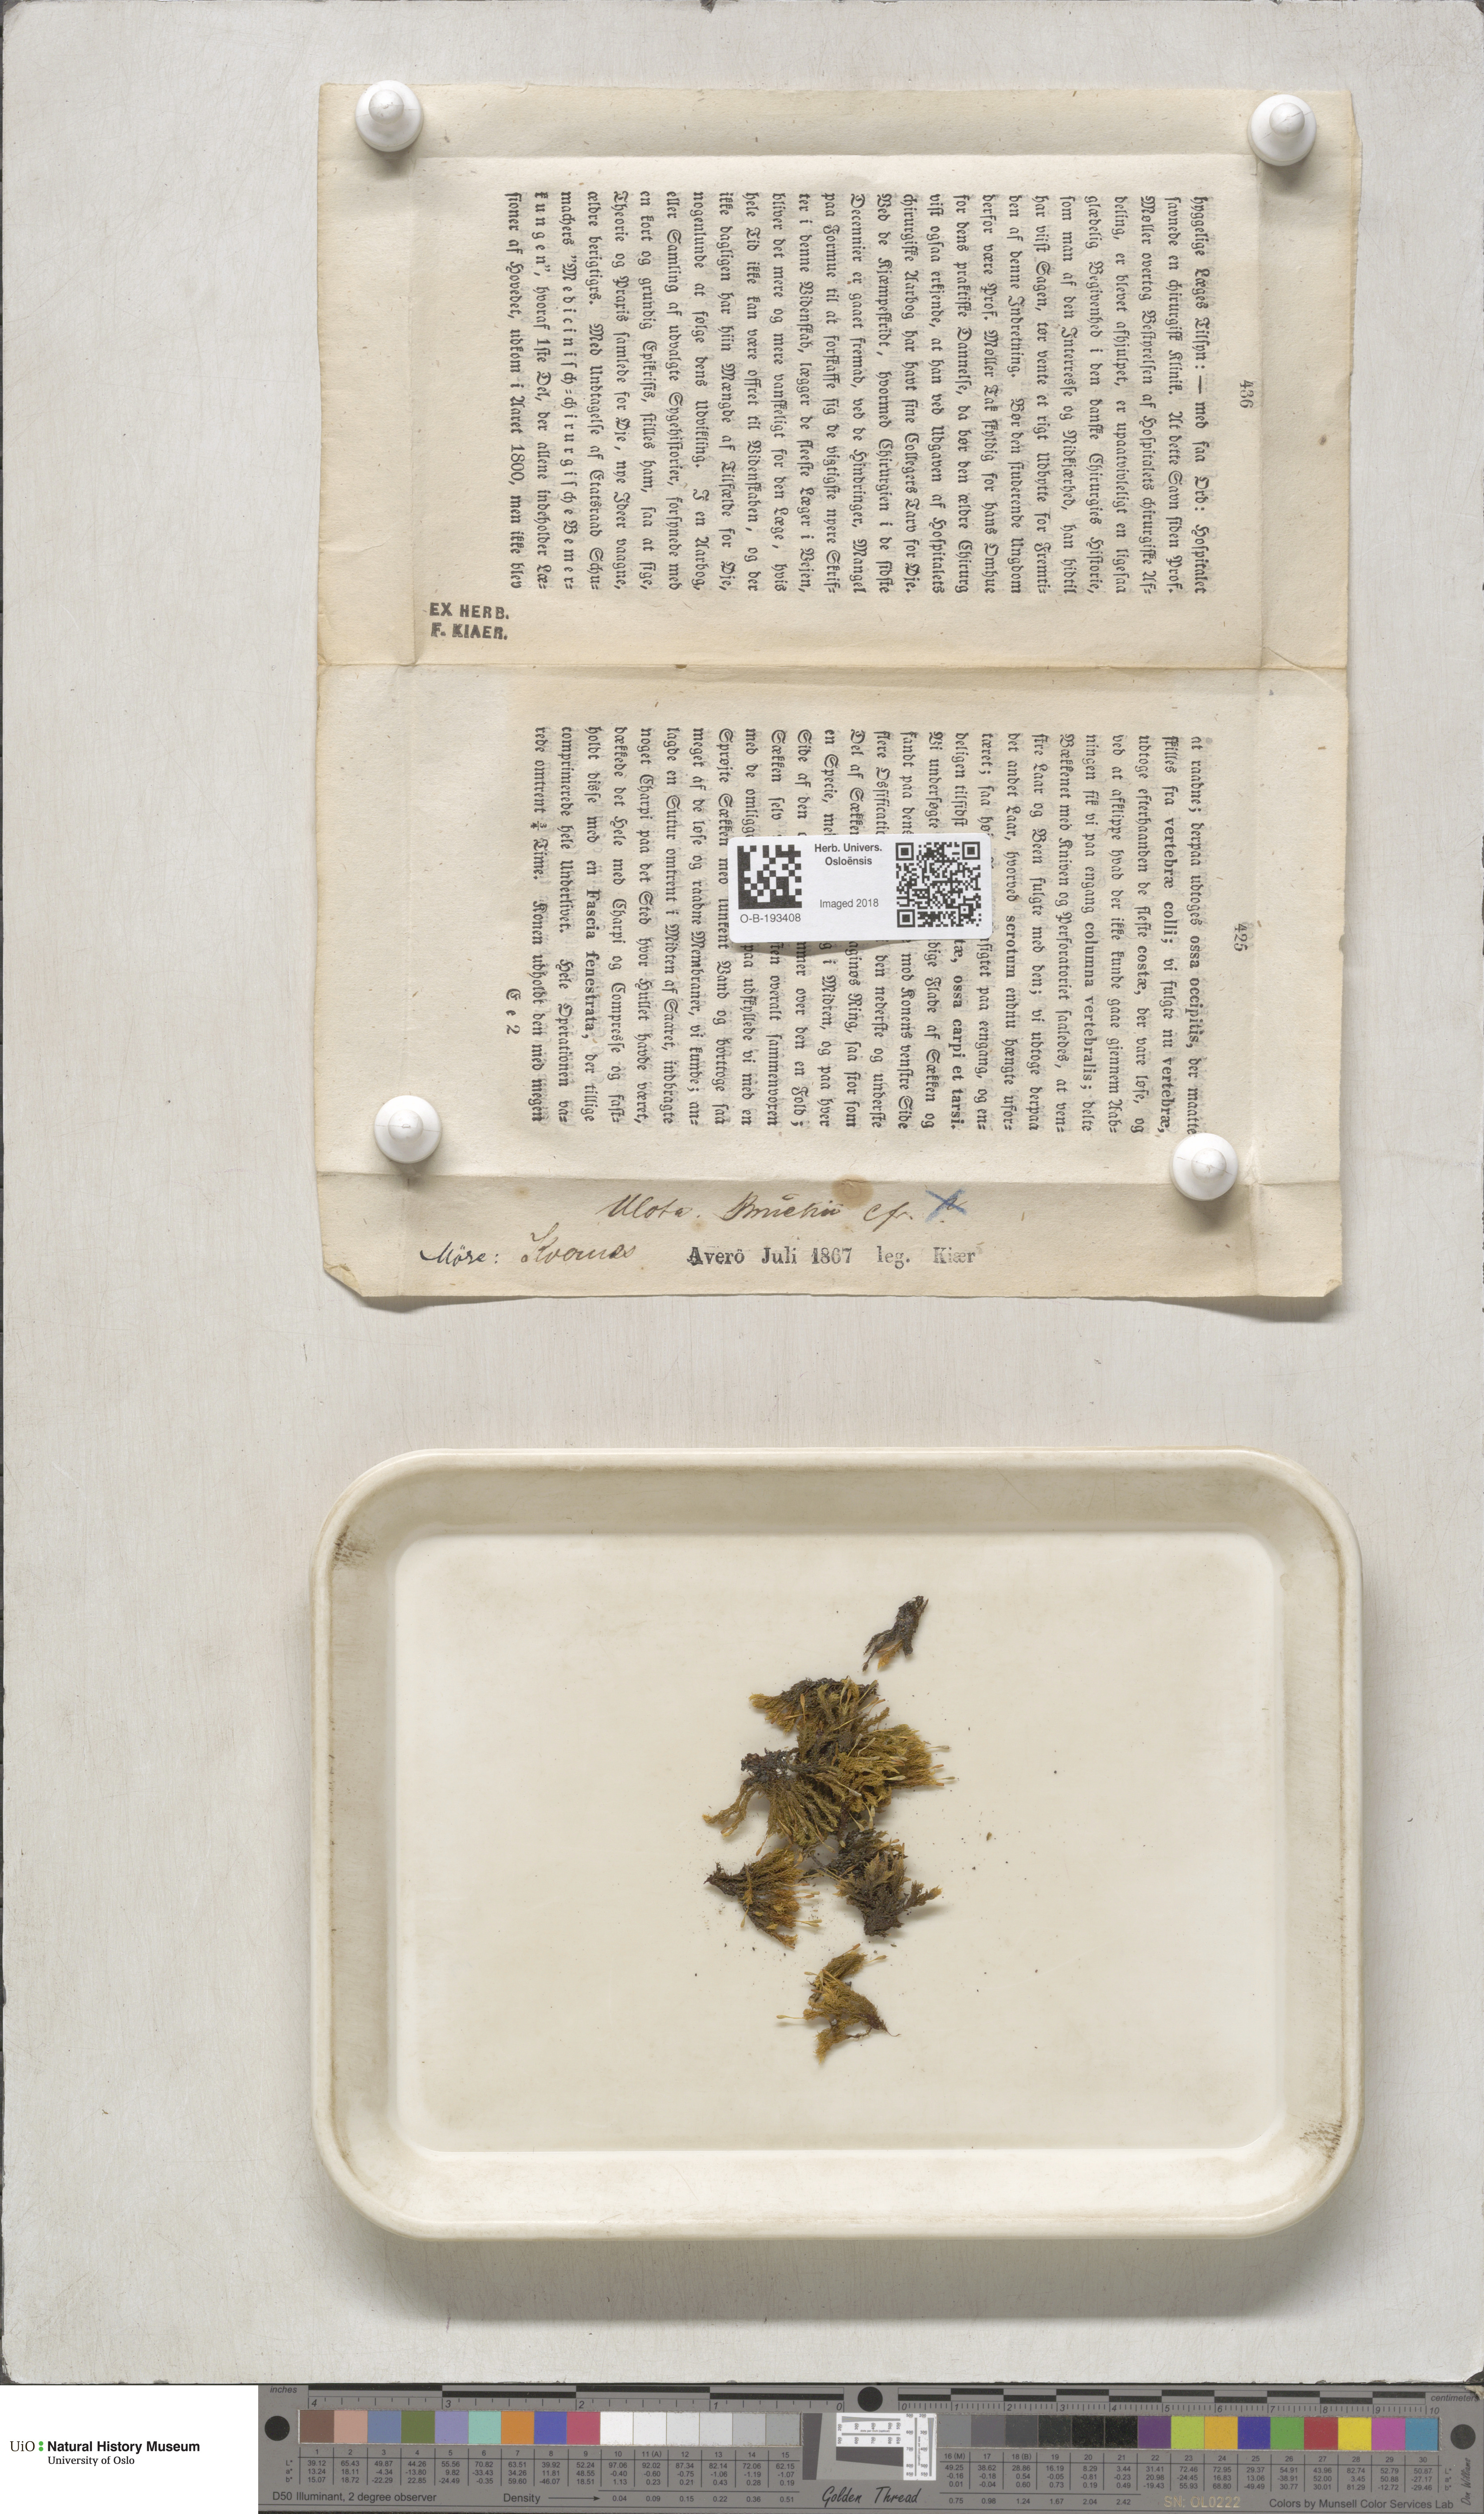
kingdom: Plantae
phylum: Bryophyta
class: Bryopsida
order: Orthotrichales
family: Orthotrichaceae
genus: Ulota
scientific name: Ulota bruchii
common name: Bruch's pincushion
